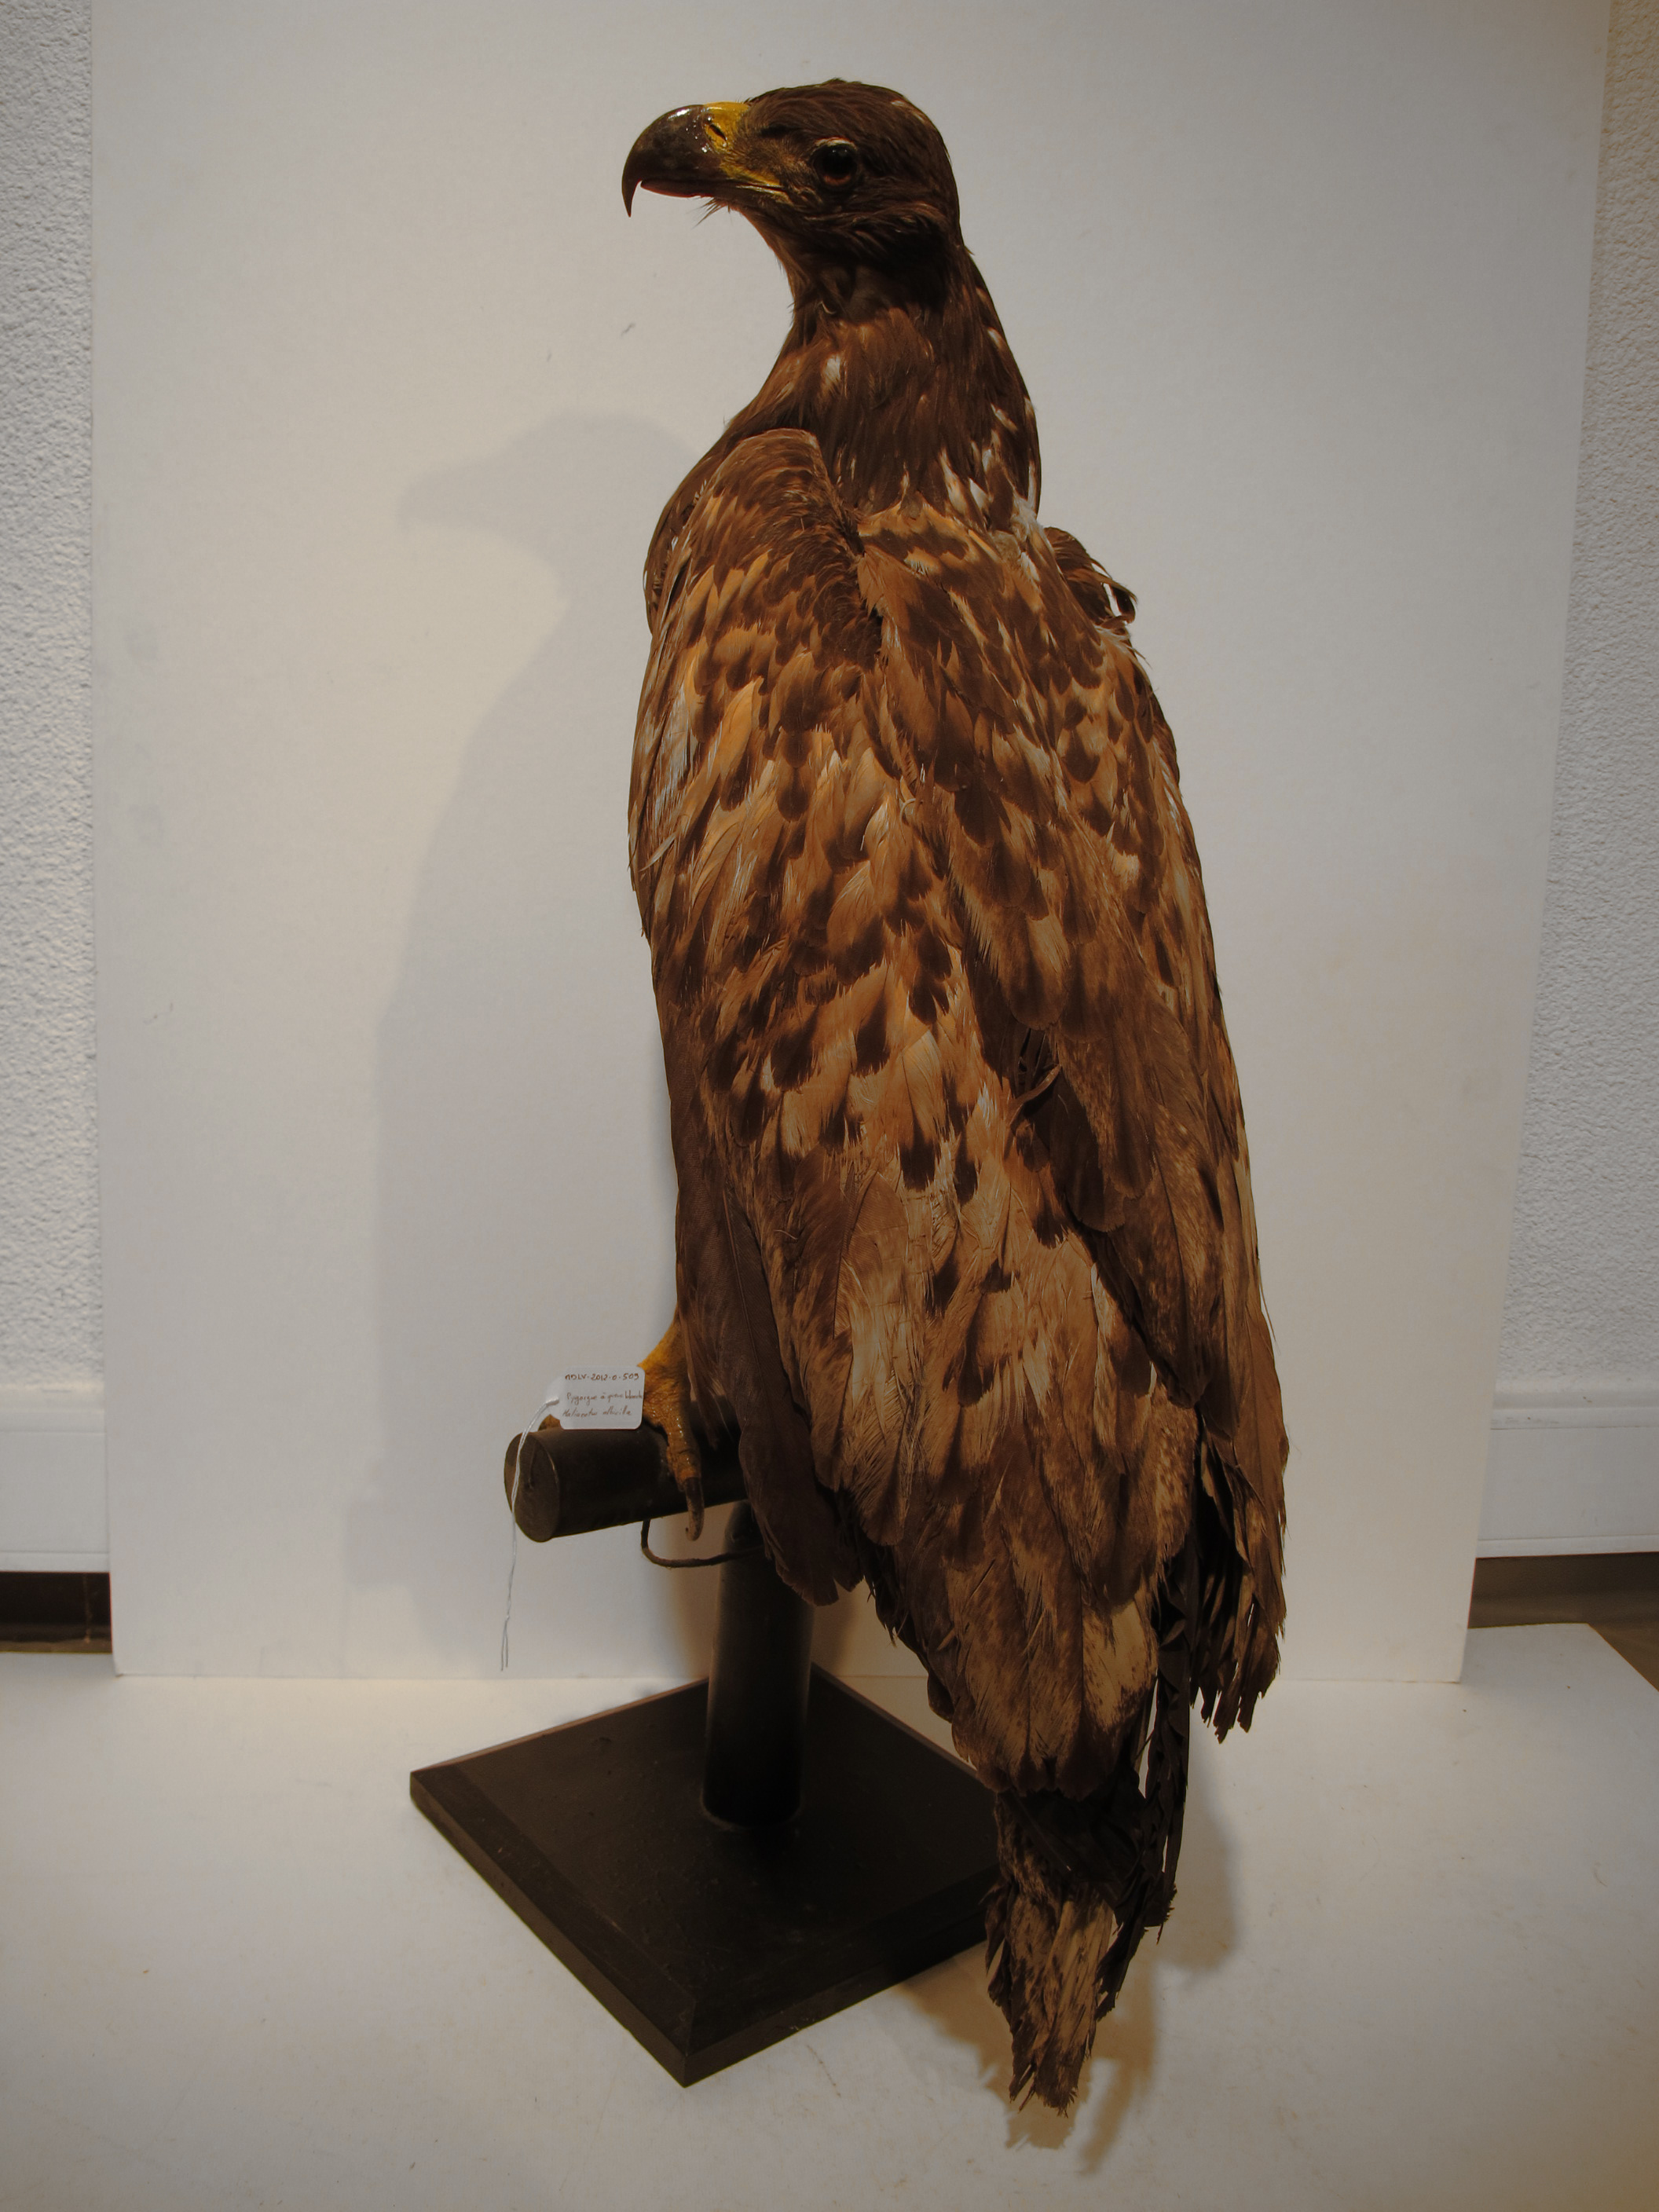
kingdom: Animalia
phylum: Chordata
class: Aves
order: Accipitriformes
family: Accipitridae
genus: Haliaeetus
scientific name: Haliaeetus albicilla
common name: White-tailed Sea-eagle
